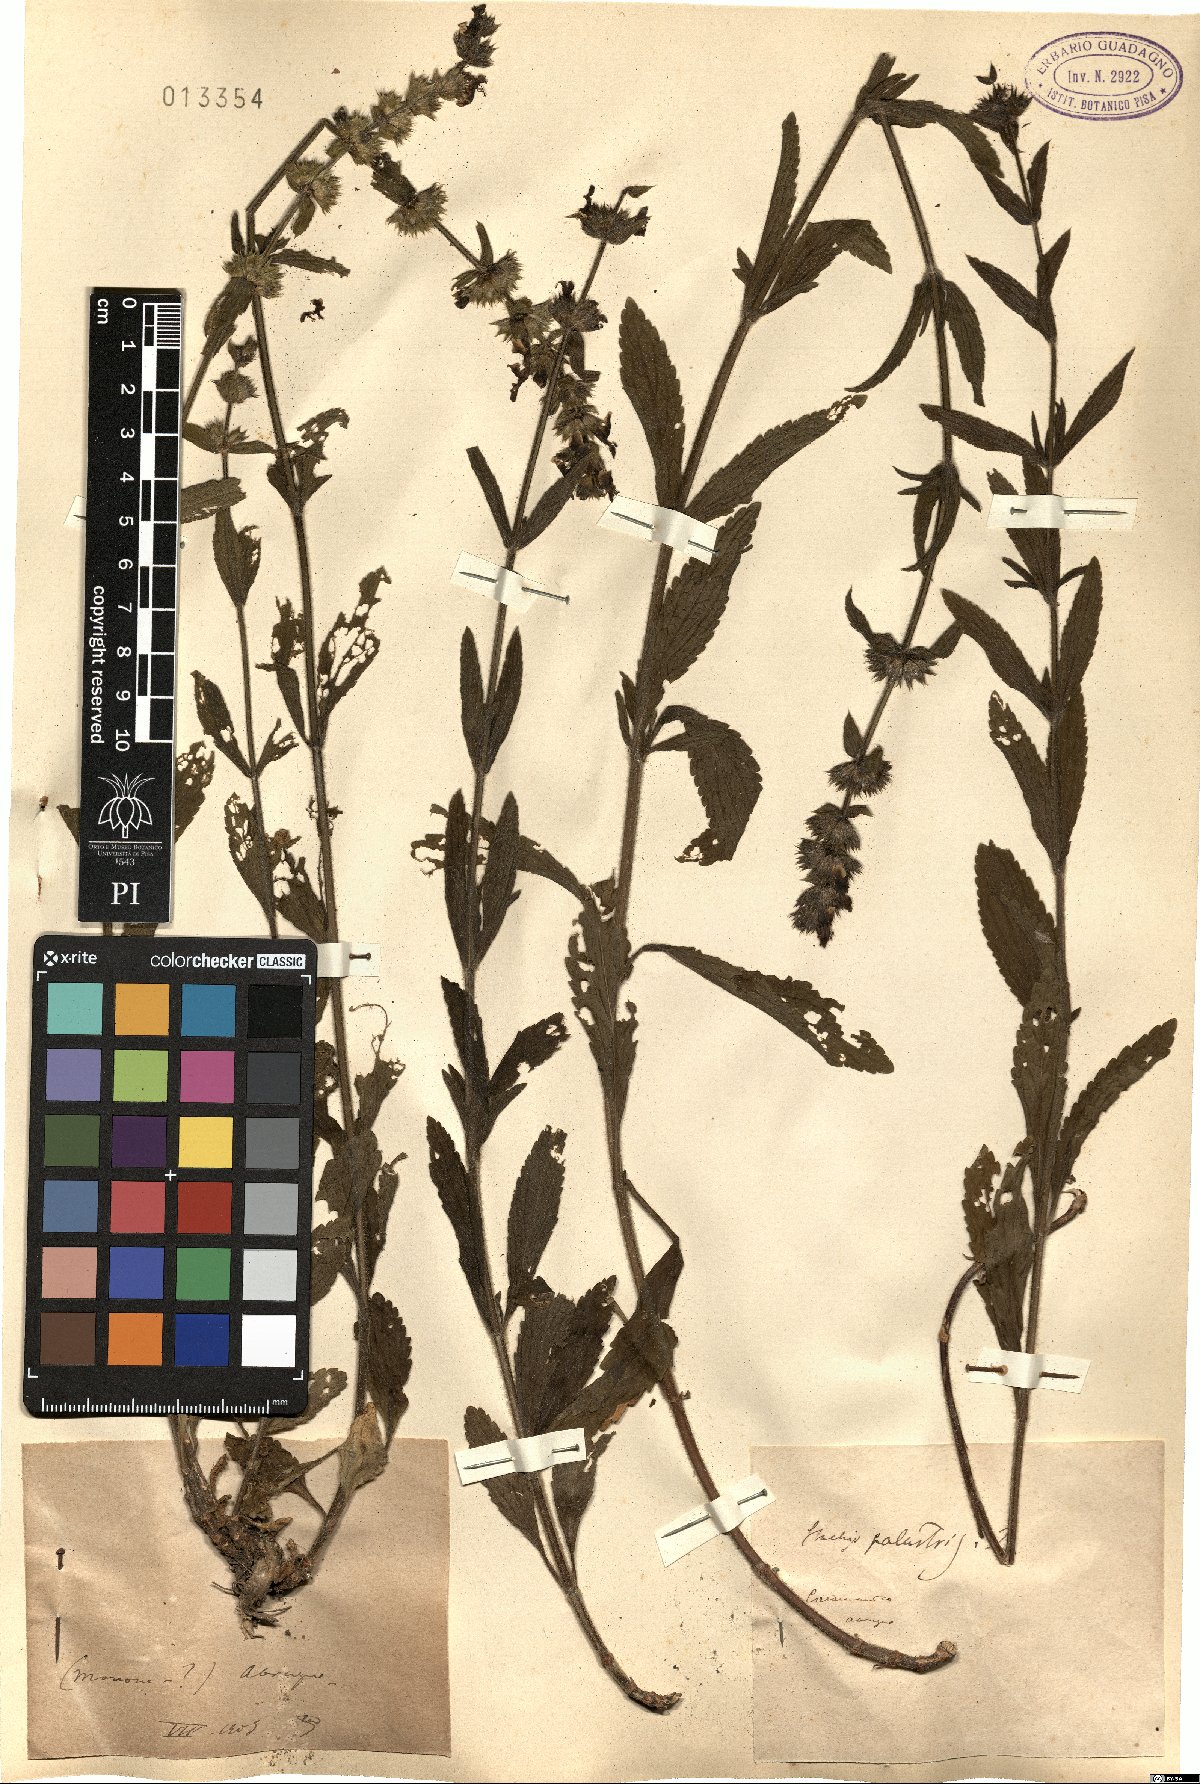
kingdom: Plantae
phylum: Tracheophyta
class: Magnoliopsida
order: Lamiales
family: Lamiaceae
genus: Stachys
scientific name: Stachys palustris
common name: Marsh woundwort
